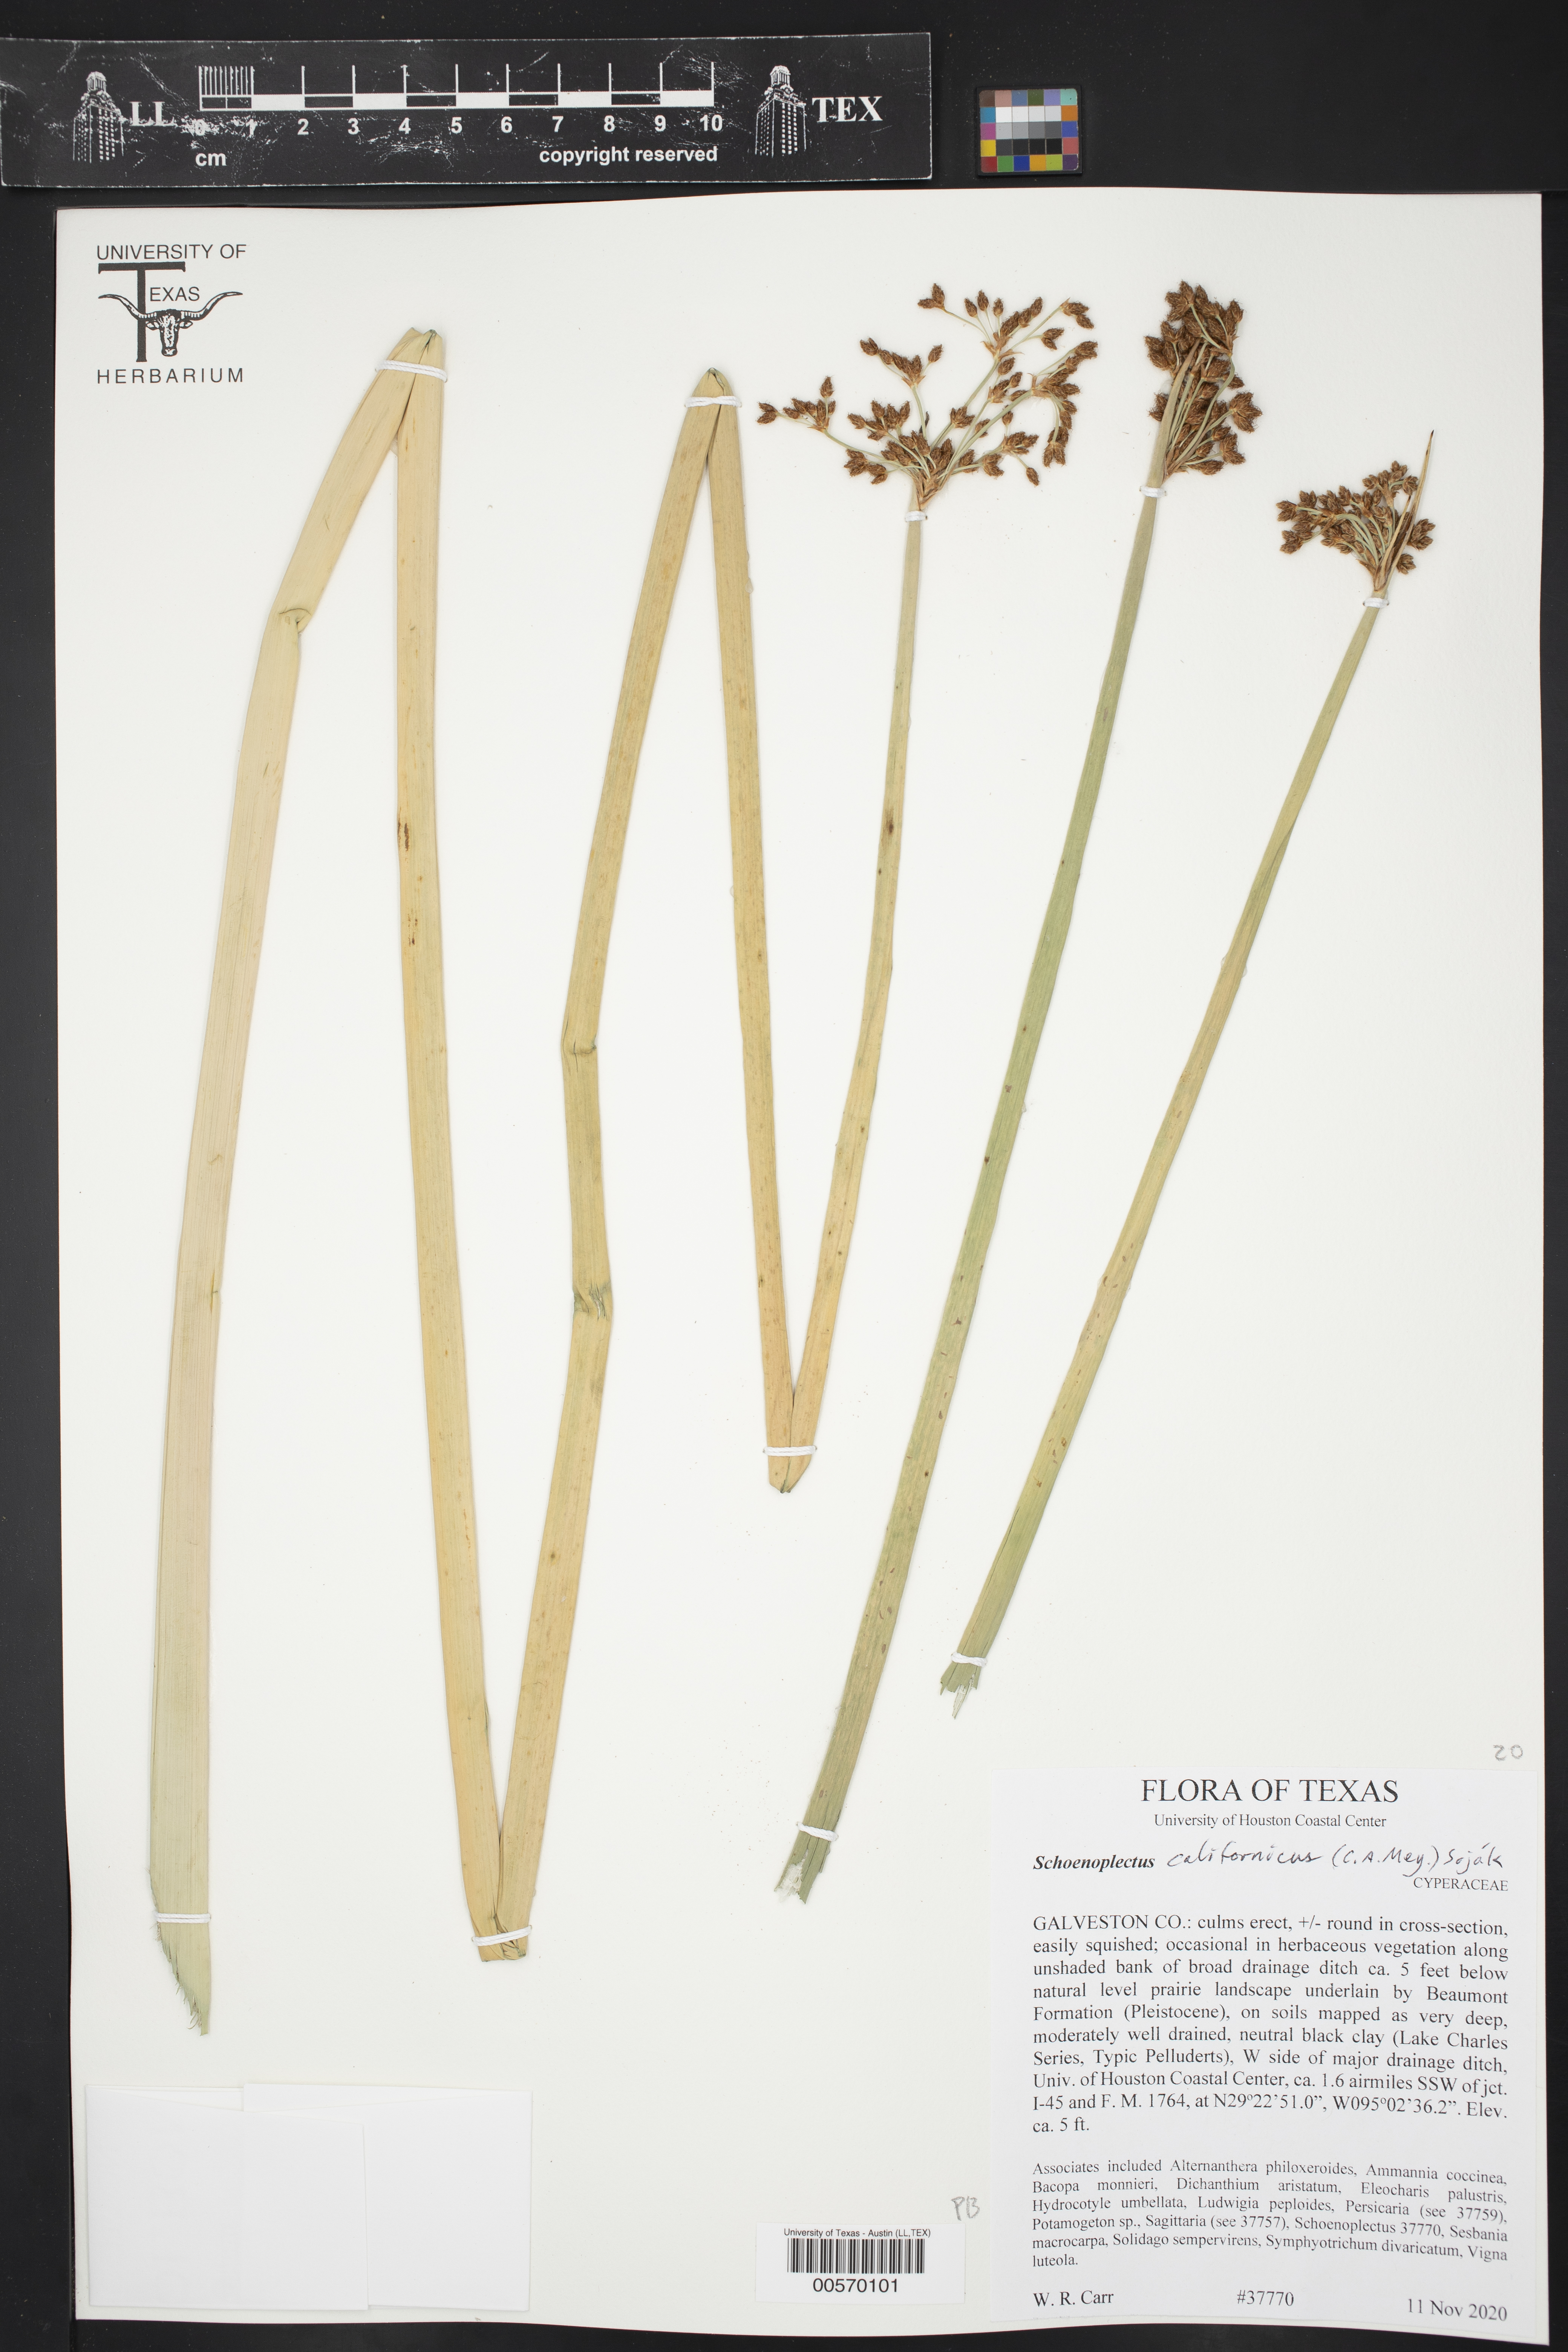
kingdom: Plantae
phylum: Tracheophyta
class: Liliopsida
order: Poales
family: Cyperaceae
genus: Schoenoplectus
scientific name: Schoenoplectus californicus
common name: California bulrush
